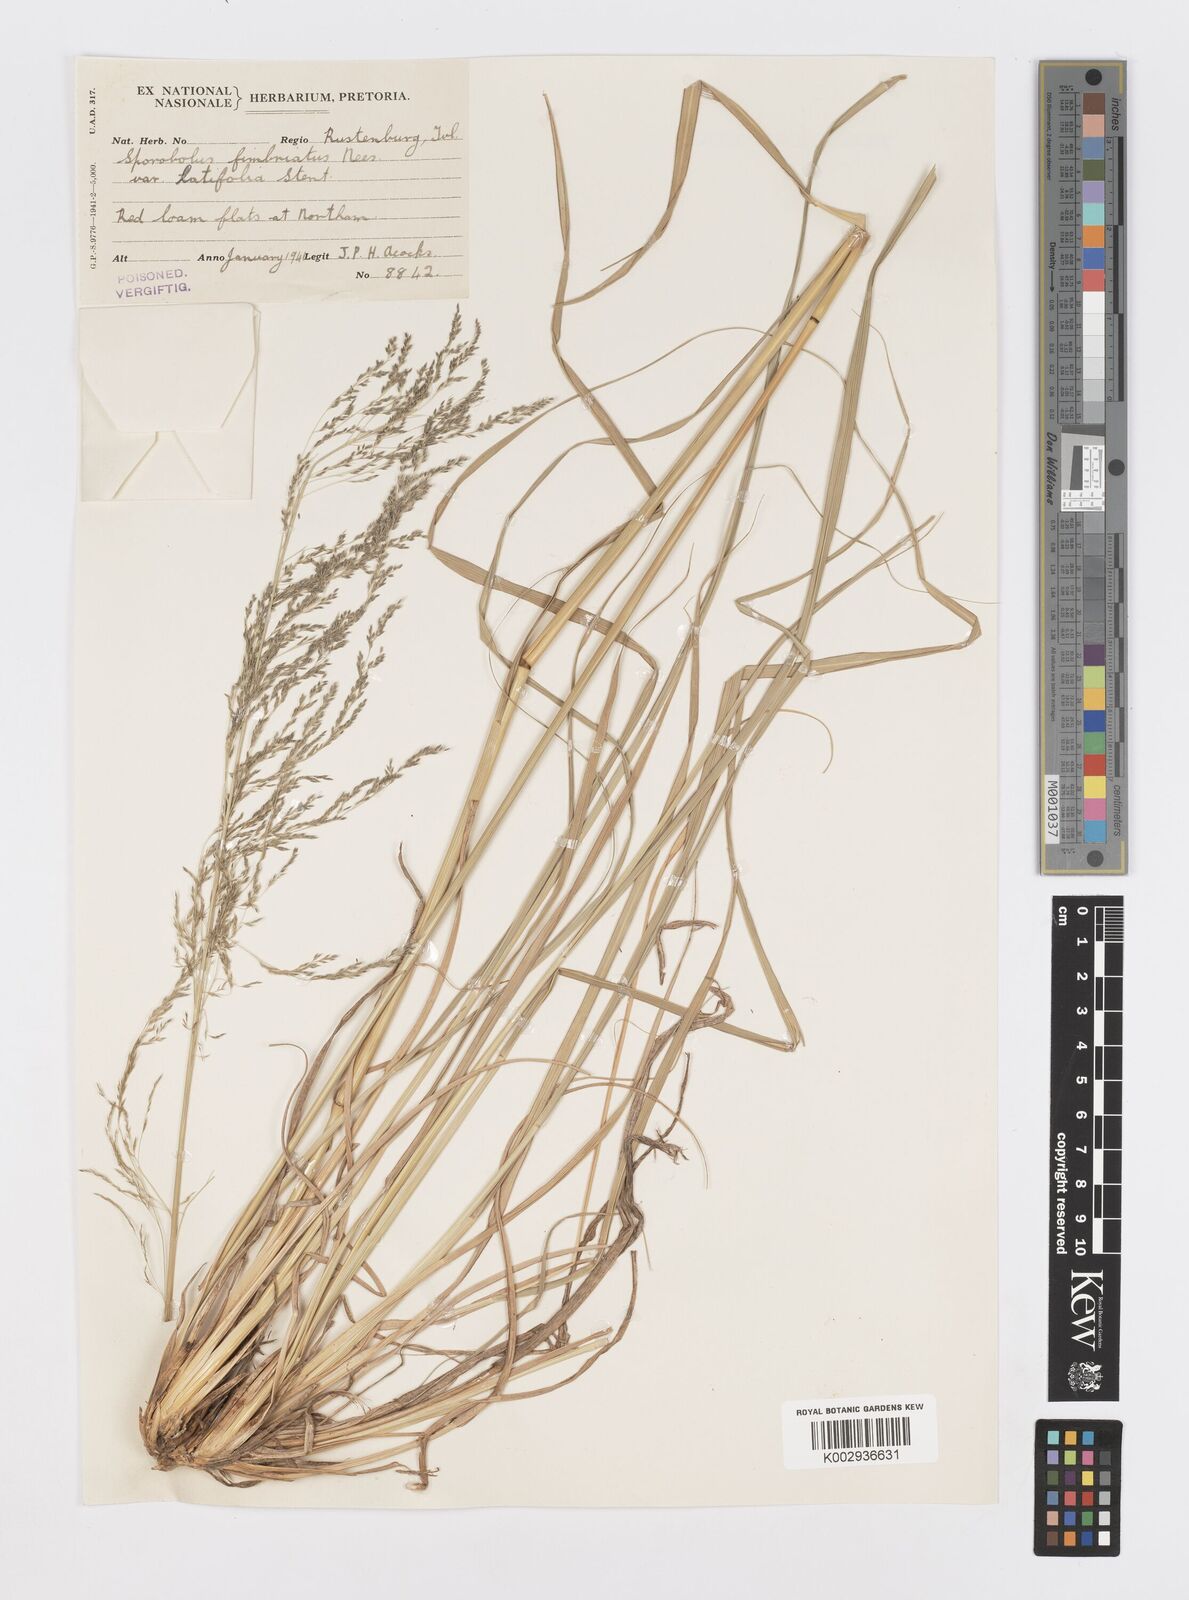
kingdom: Plantae
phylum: Tracheophyta
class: Liliopsida
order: Poales
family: Poaceae
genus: Sporobolus
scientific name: Sporobolus fimbriatus
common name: Fringed dropseed
